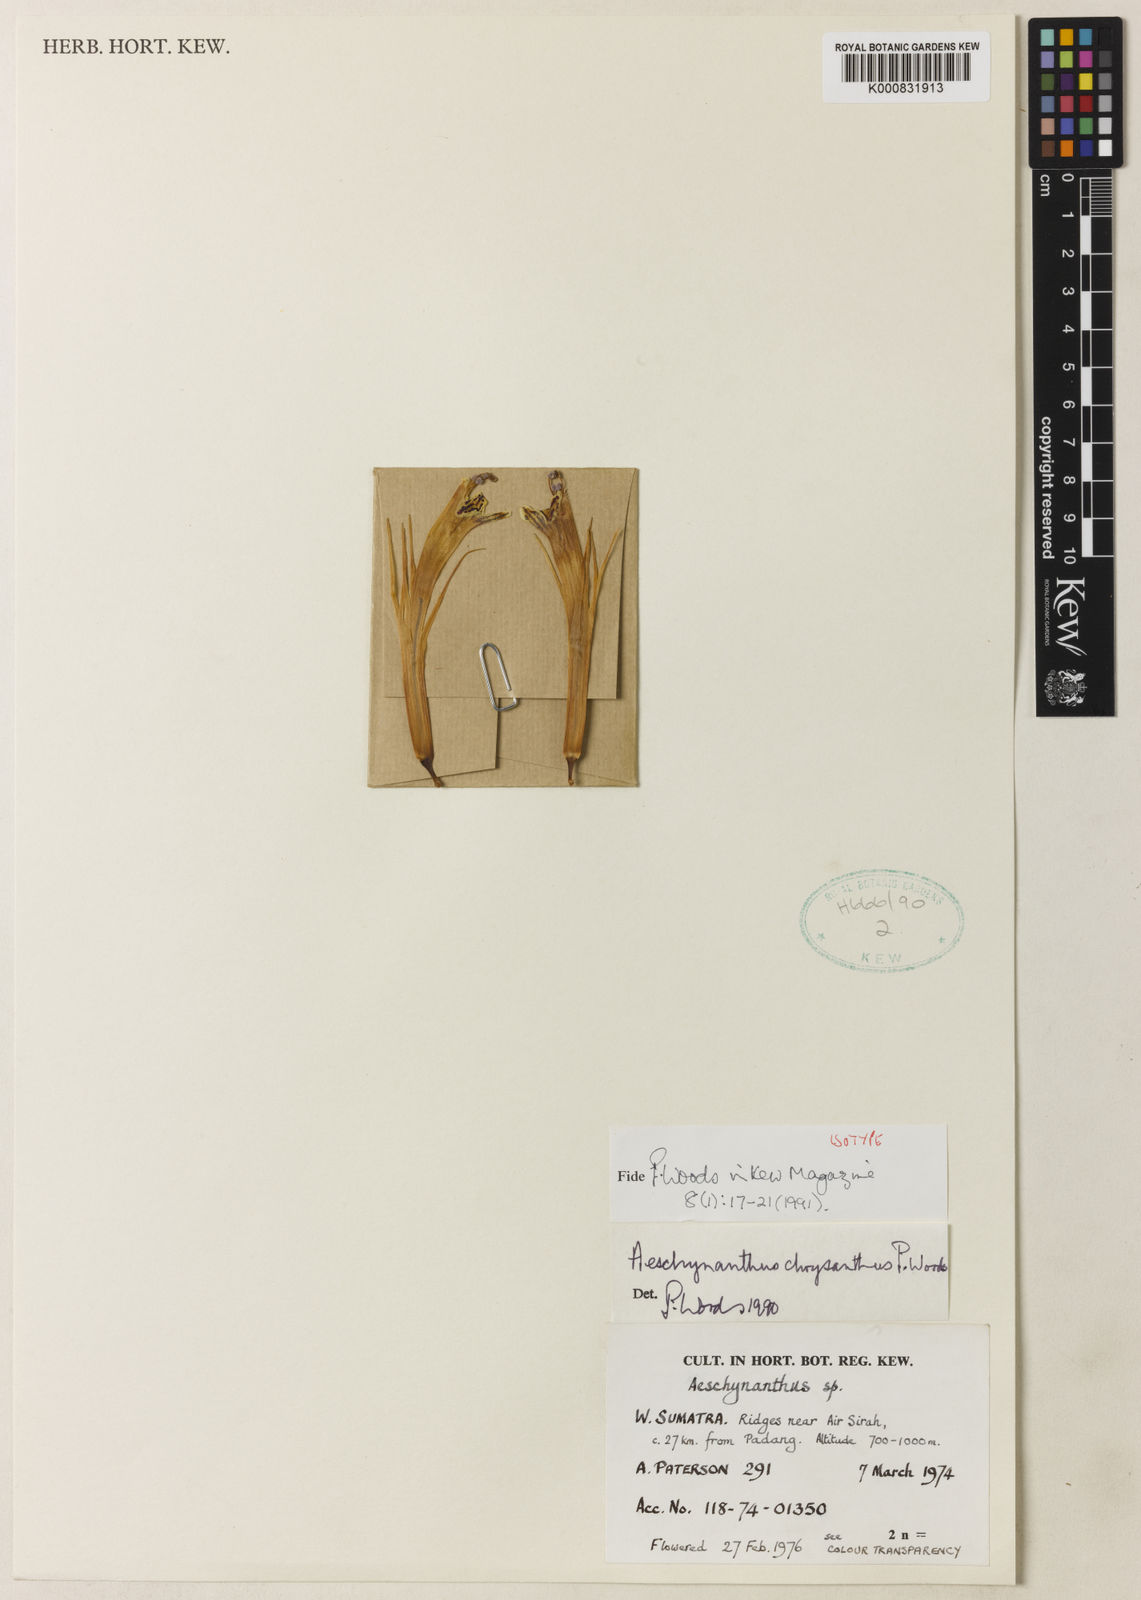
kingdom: Plantae
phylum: Tracheophyta
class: Magnoliopsida
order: Lamiales
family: Gesneriaceae
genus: Aeschynanthus
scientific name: Aeschynanthus chrysanthus
